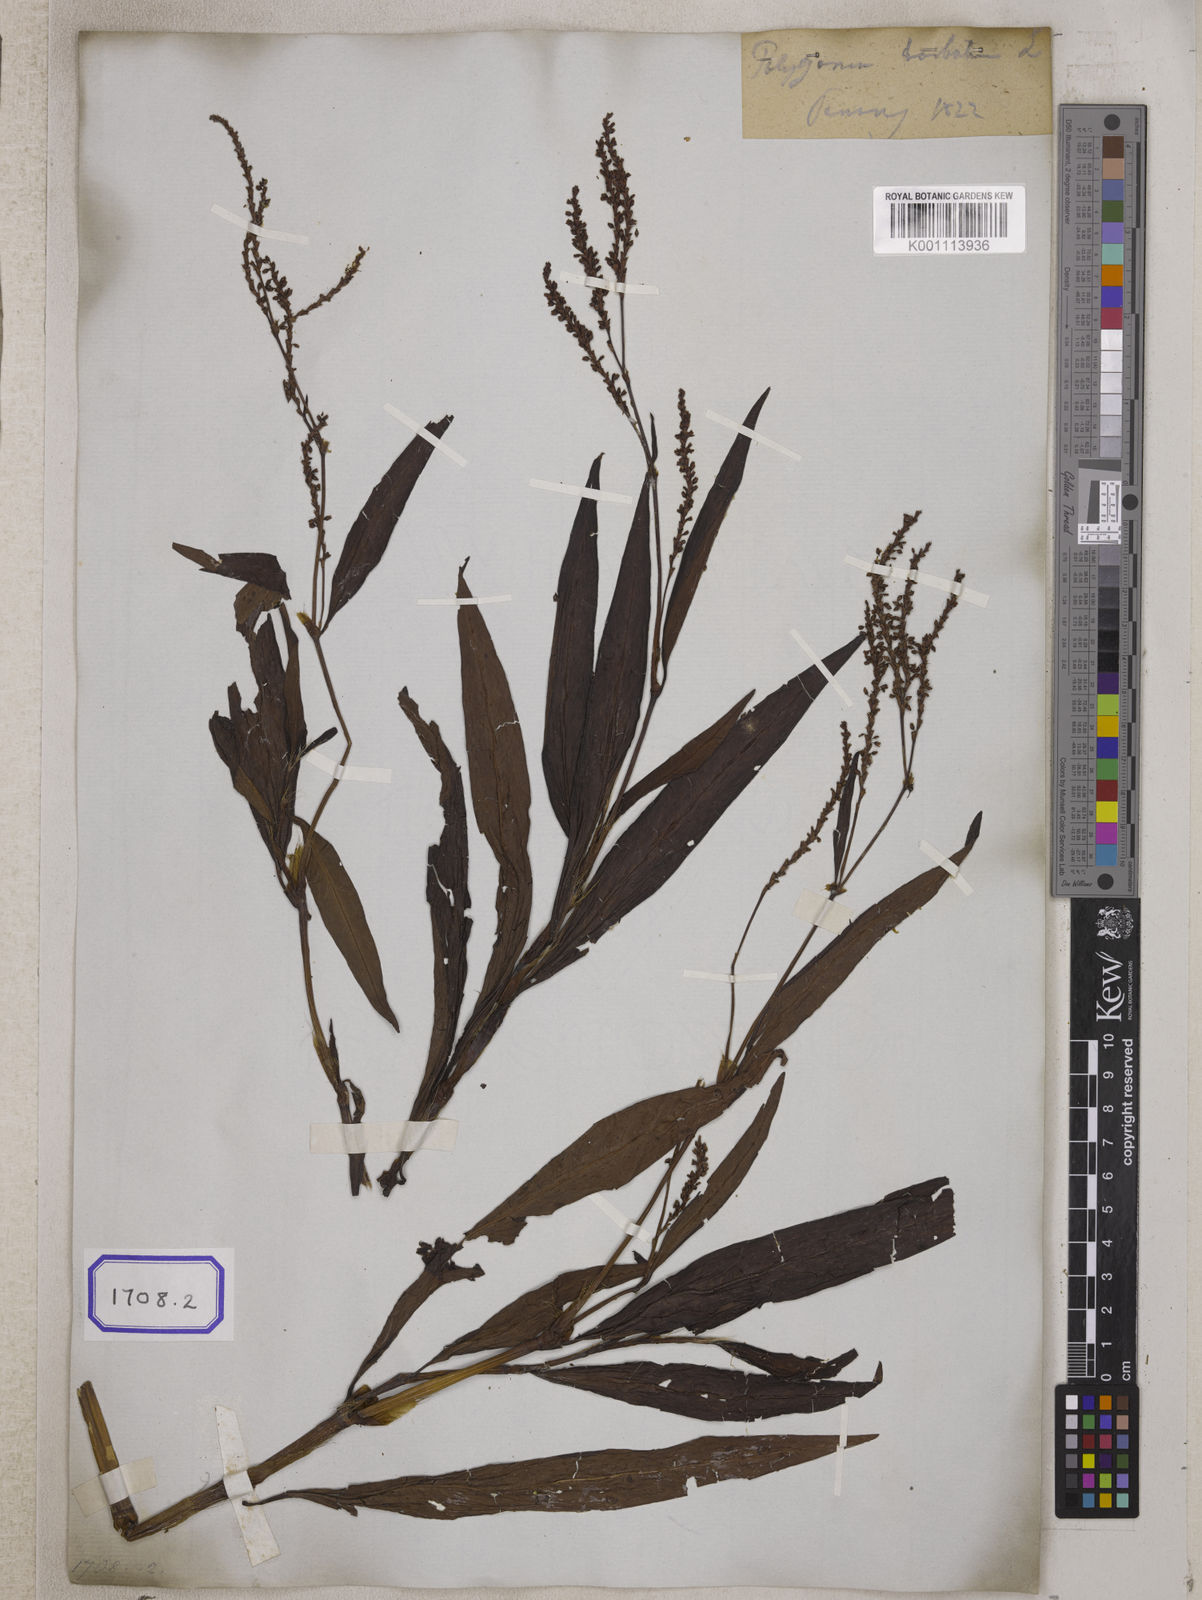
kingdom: Plantae
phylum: Tracheophyta
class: Magnoliopsida
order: Caryophyllales
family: Polygonaceae
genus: Persicaria
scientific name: Persicaria barbata
